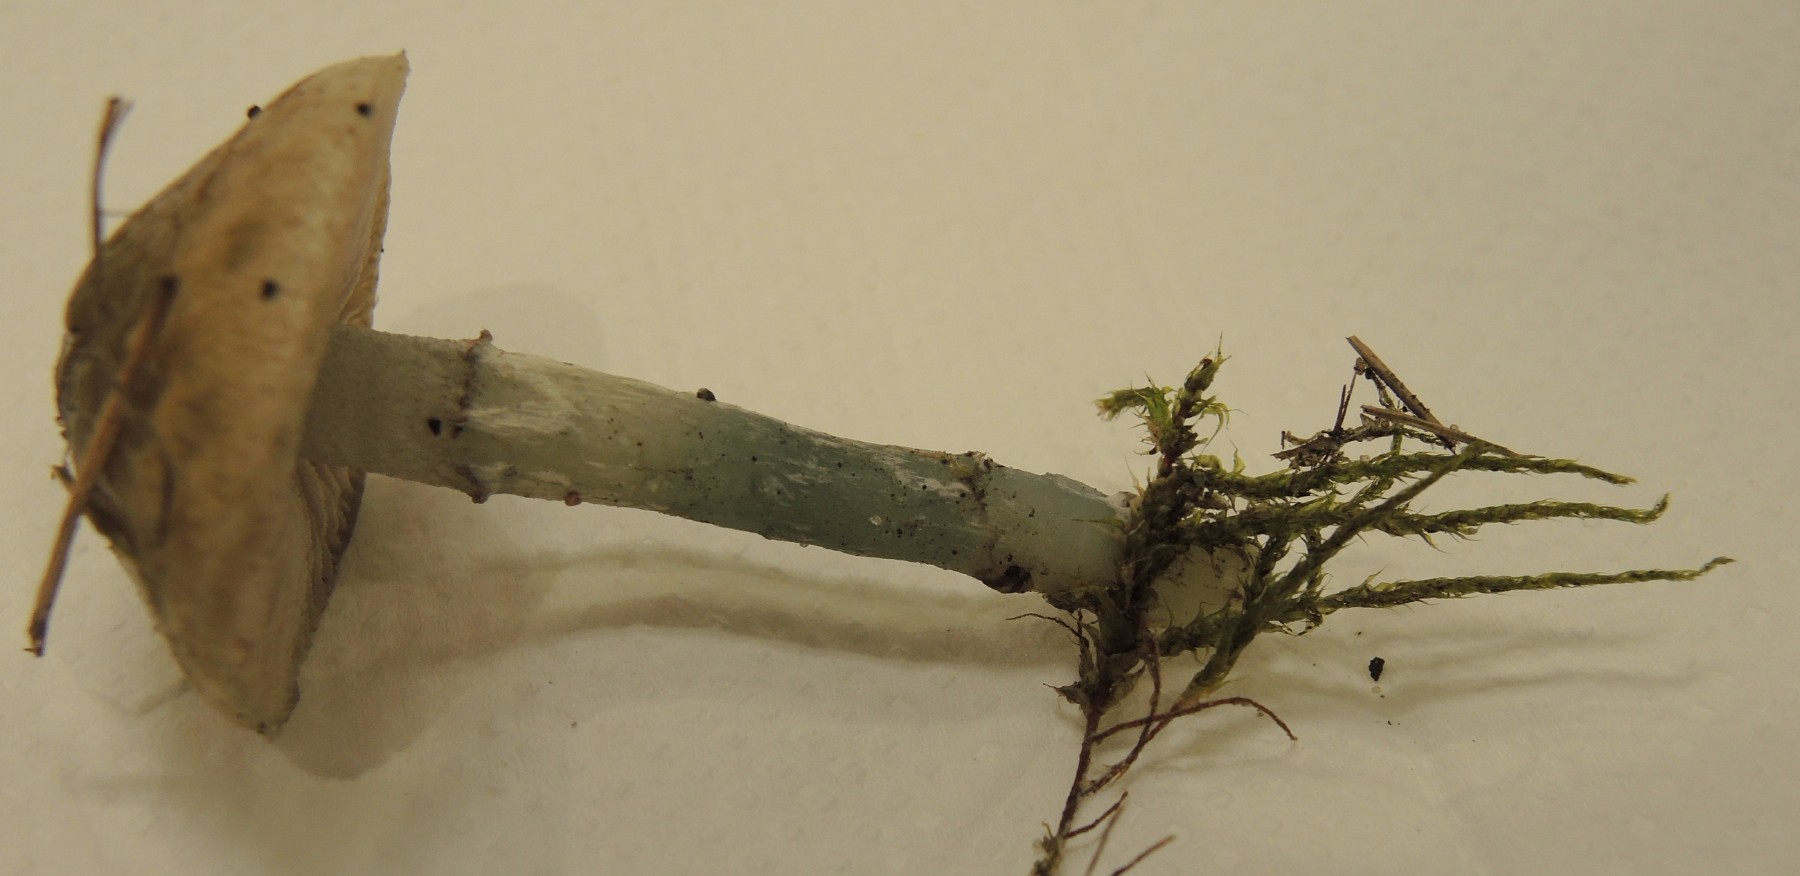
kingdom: Fungi
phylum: Basidiomycota
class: Agaricomycetes
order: Agaricales
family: Strophariaceae
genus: Stropharia
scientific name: Stropharia pseudocyanea
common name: blegblå bredblad
